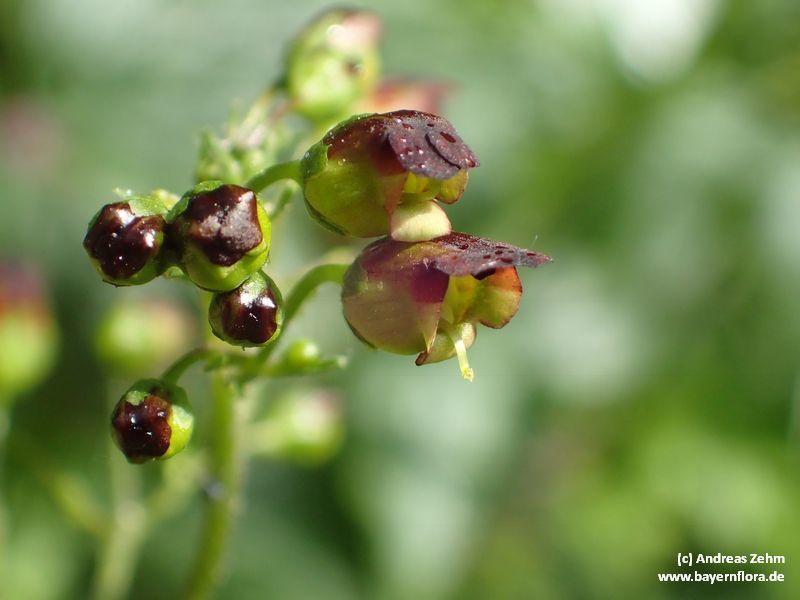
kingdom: Plantae
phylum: Tracheophyta
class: Magnoliopsida
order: Lamiales
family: Scrophulariaceae
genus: Scrophularia
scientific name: Scrophularia nodosa
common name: Common figwort
